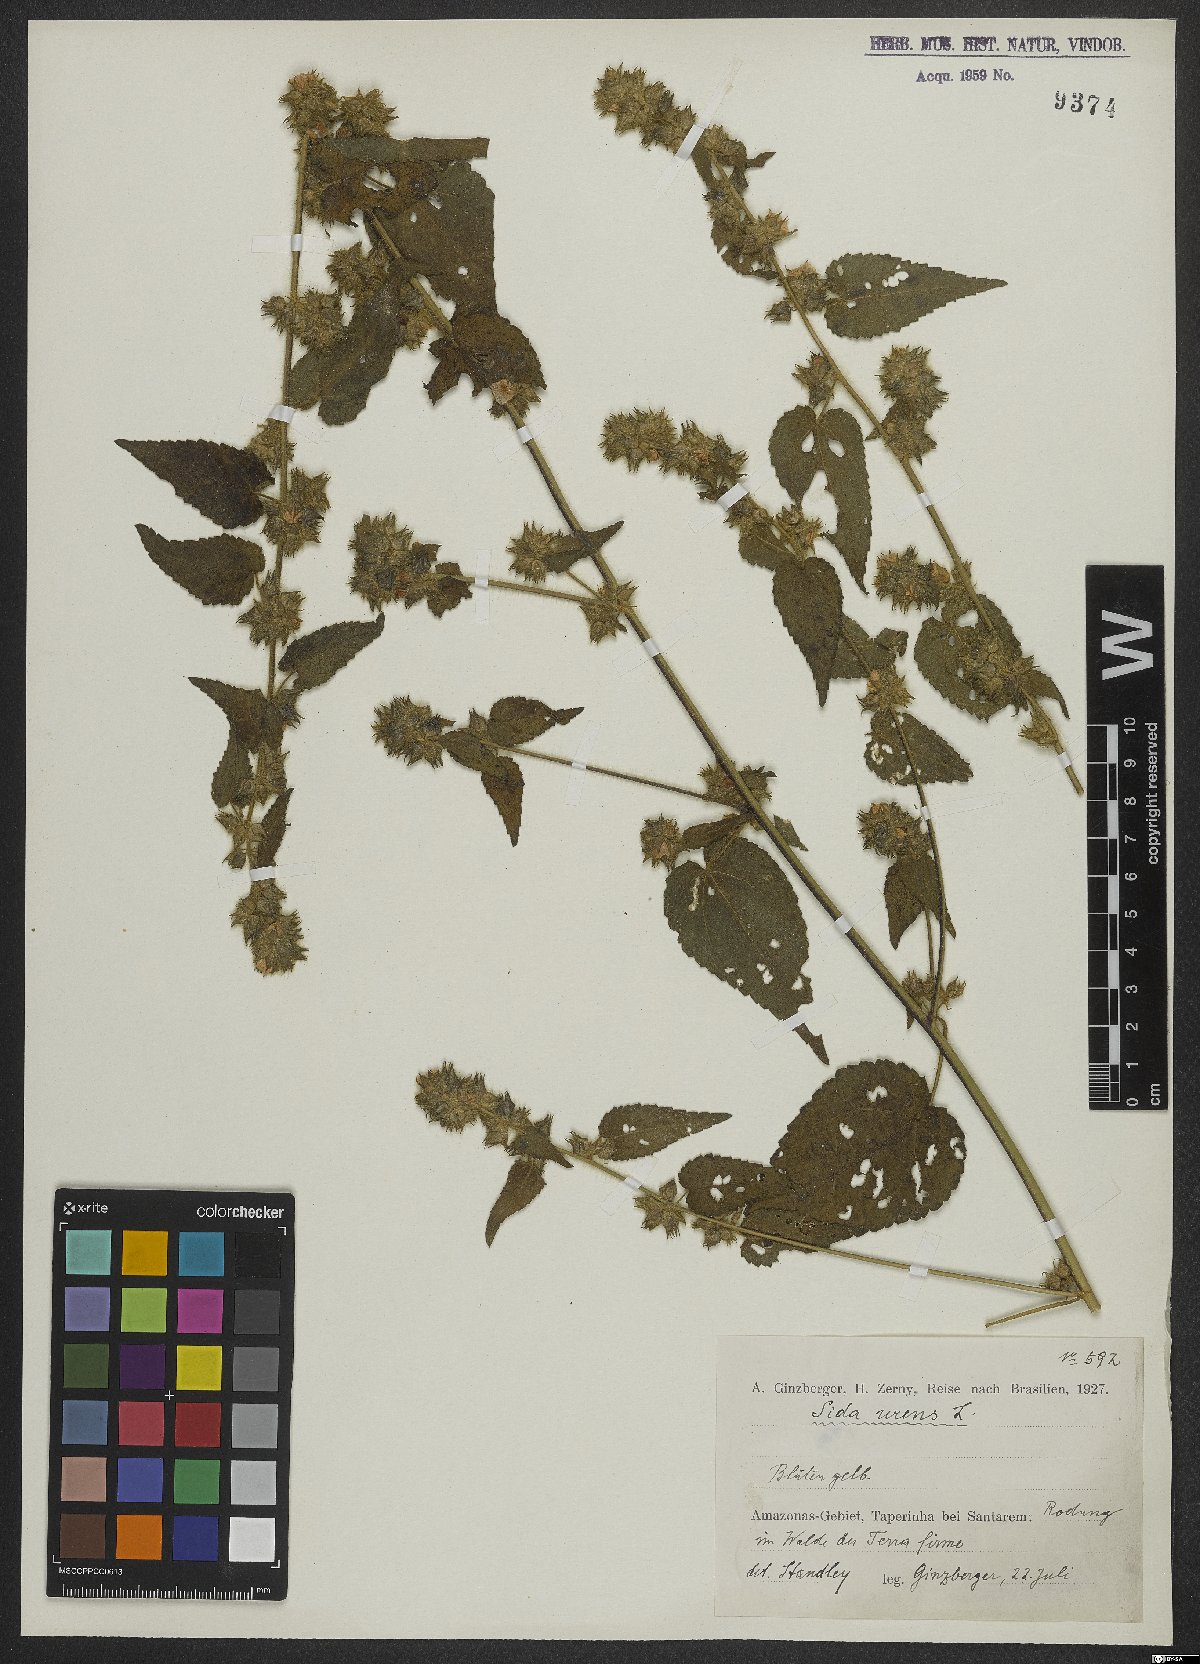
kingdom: Plantae
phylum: Tracheophyta
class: Magnoliopsida
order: Malvales
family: Malvaceae
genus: Sida
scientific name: Sida urens
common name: Tropical fanpetals
